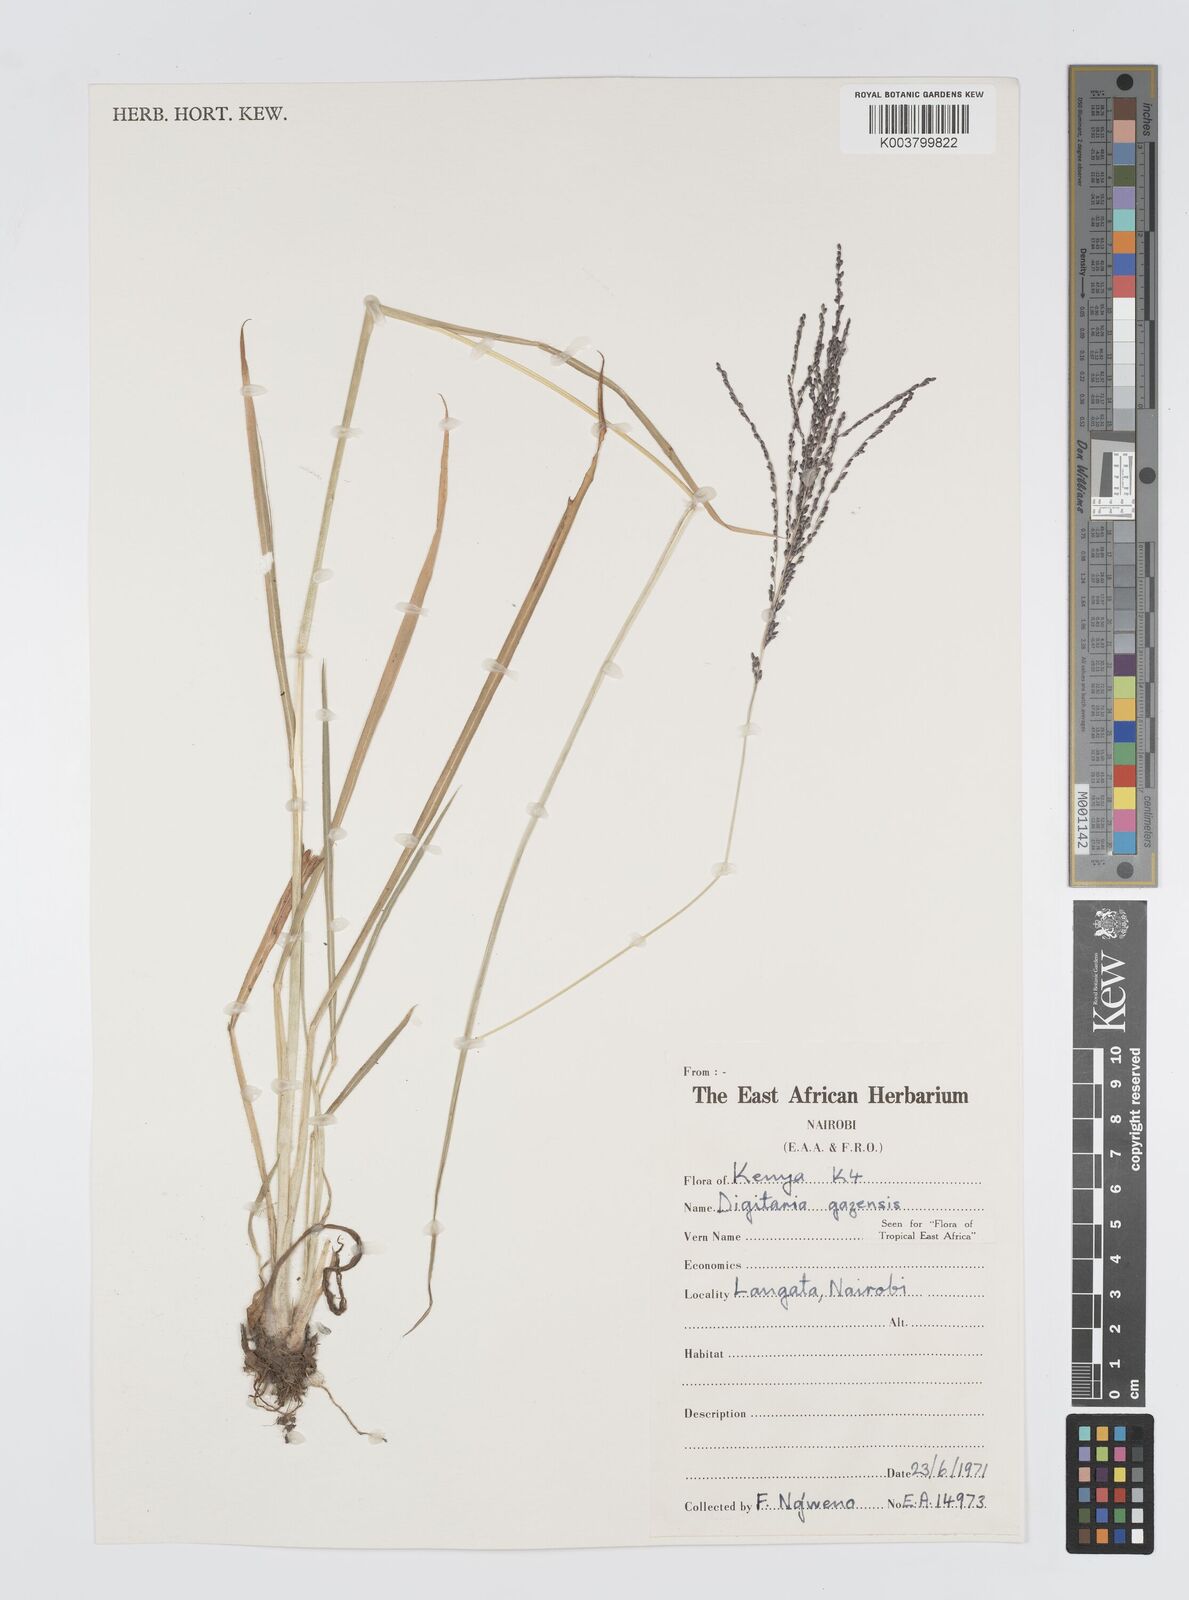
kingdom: Plantae
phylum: Tracheophyta
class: Liliopsida
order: Poales
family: Poaceae
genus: Digitaria
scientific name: Digitaria gazensis
